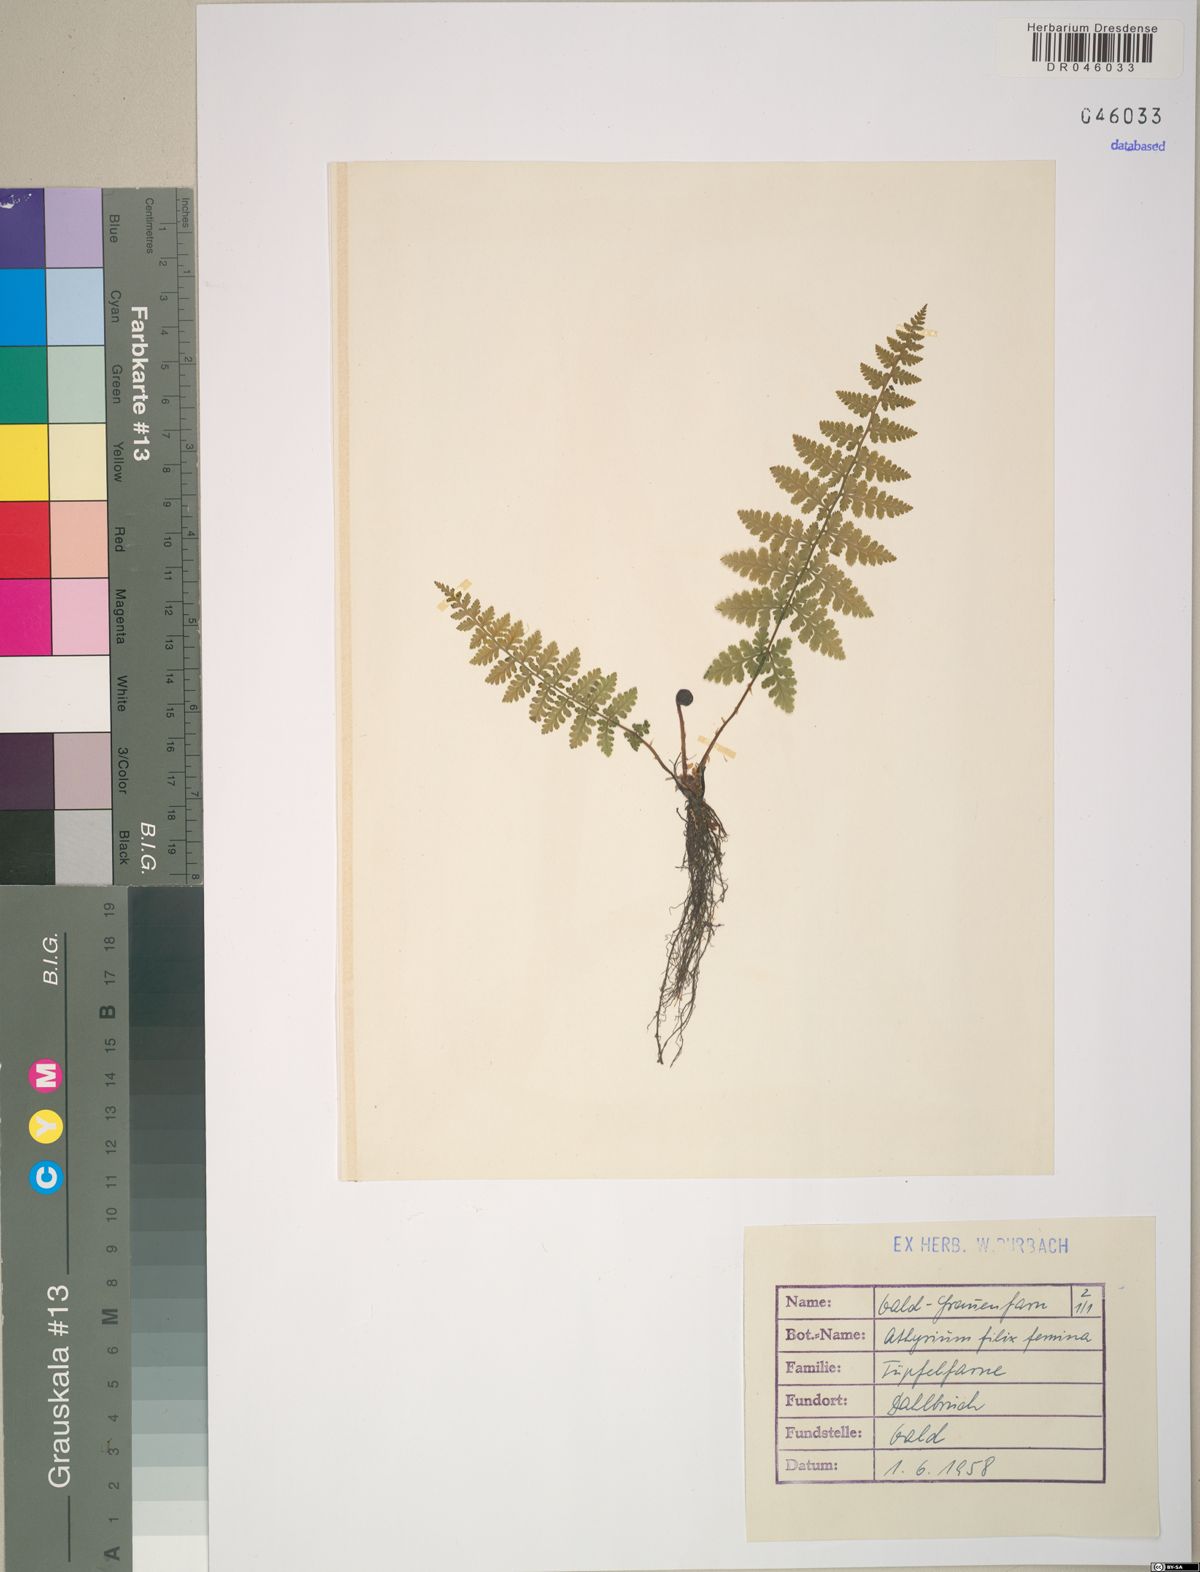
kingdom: Plantae
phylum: Tracheophyta
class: Polypodiopsida
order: Polypodiales
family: Athyriaceae
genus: Athyrium
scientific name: Athyrium filix-femina
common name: Lady fern
